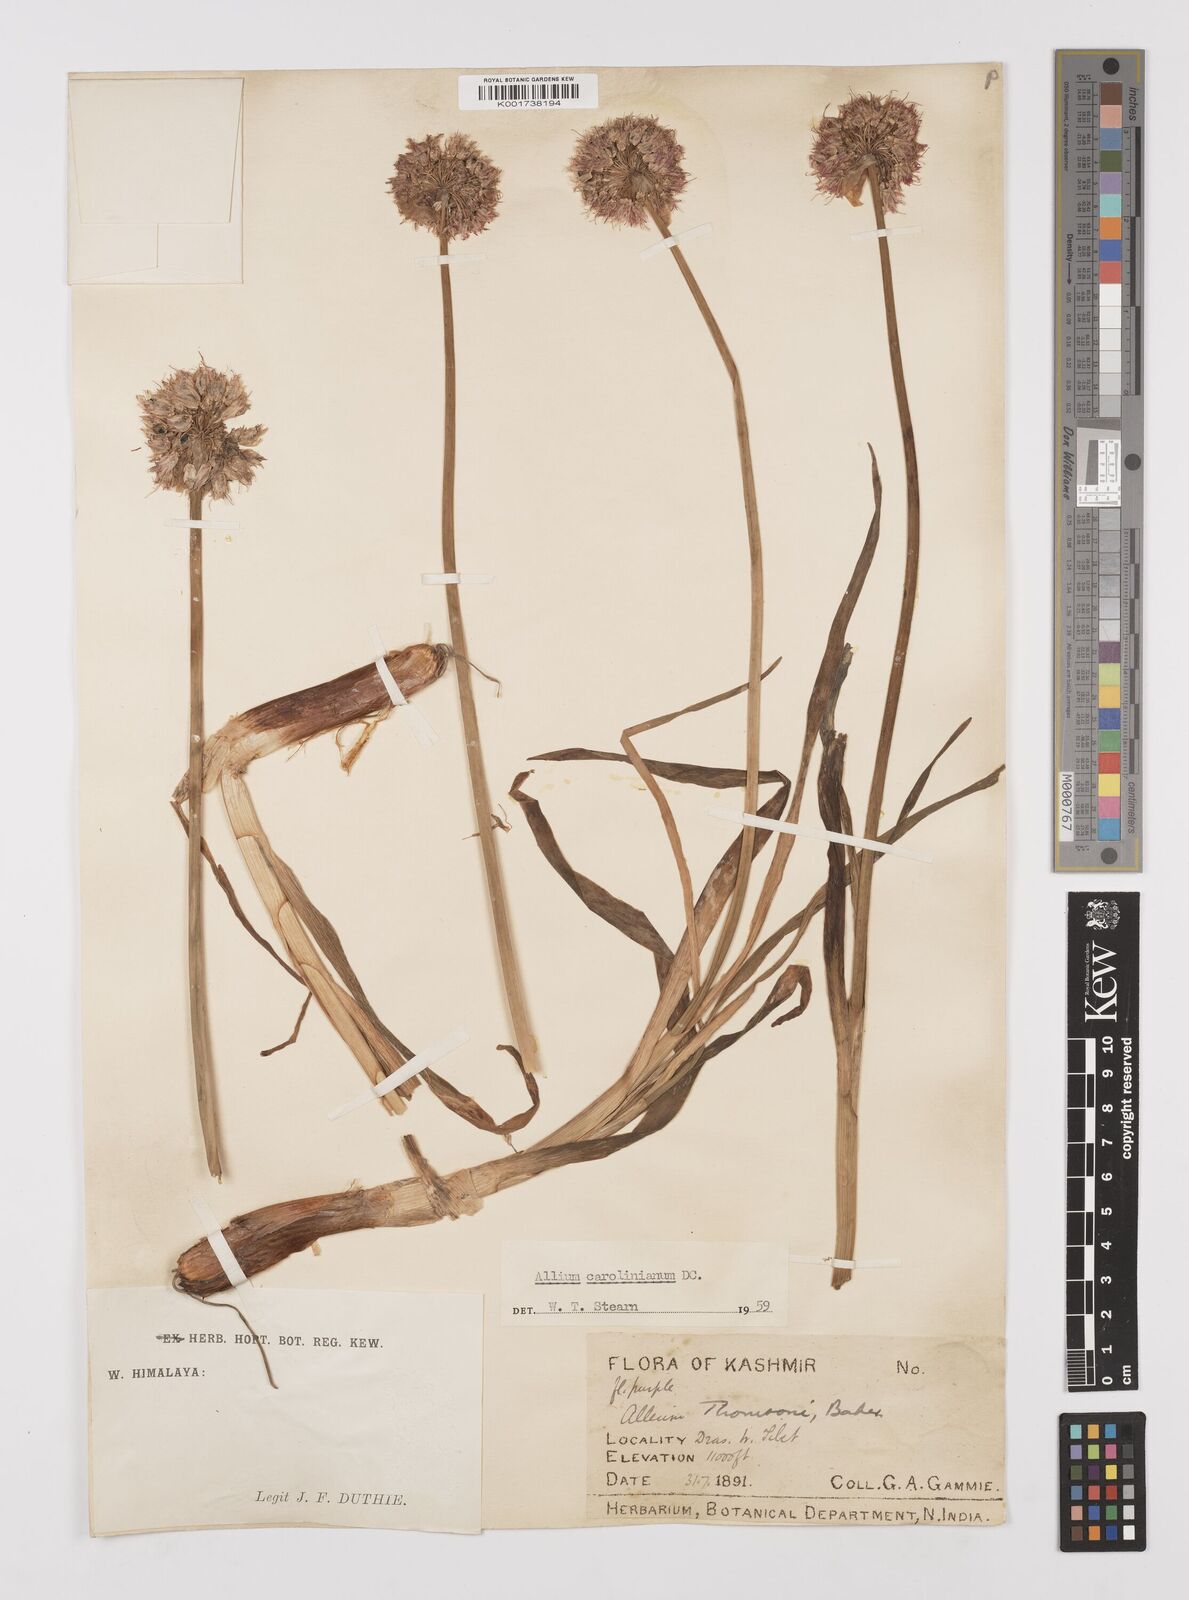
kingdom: Plantae
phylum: Tracheophyta
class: Liliopsida
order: Asparagales
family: Amaryllidaceae
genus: Allium
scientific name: Allium carolinianum
